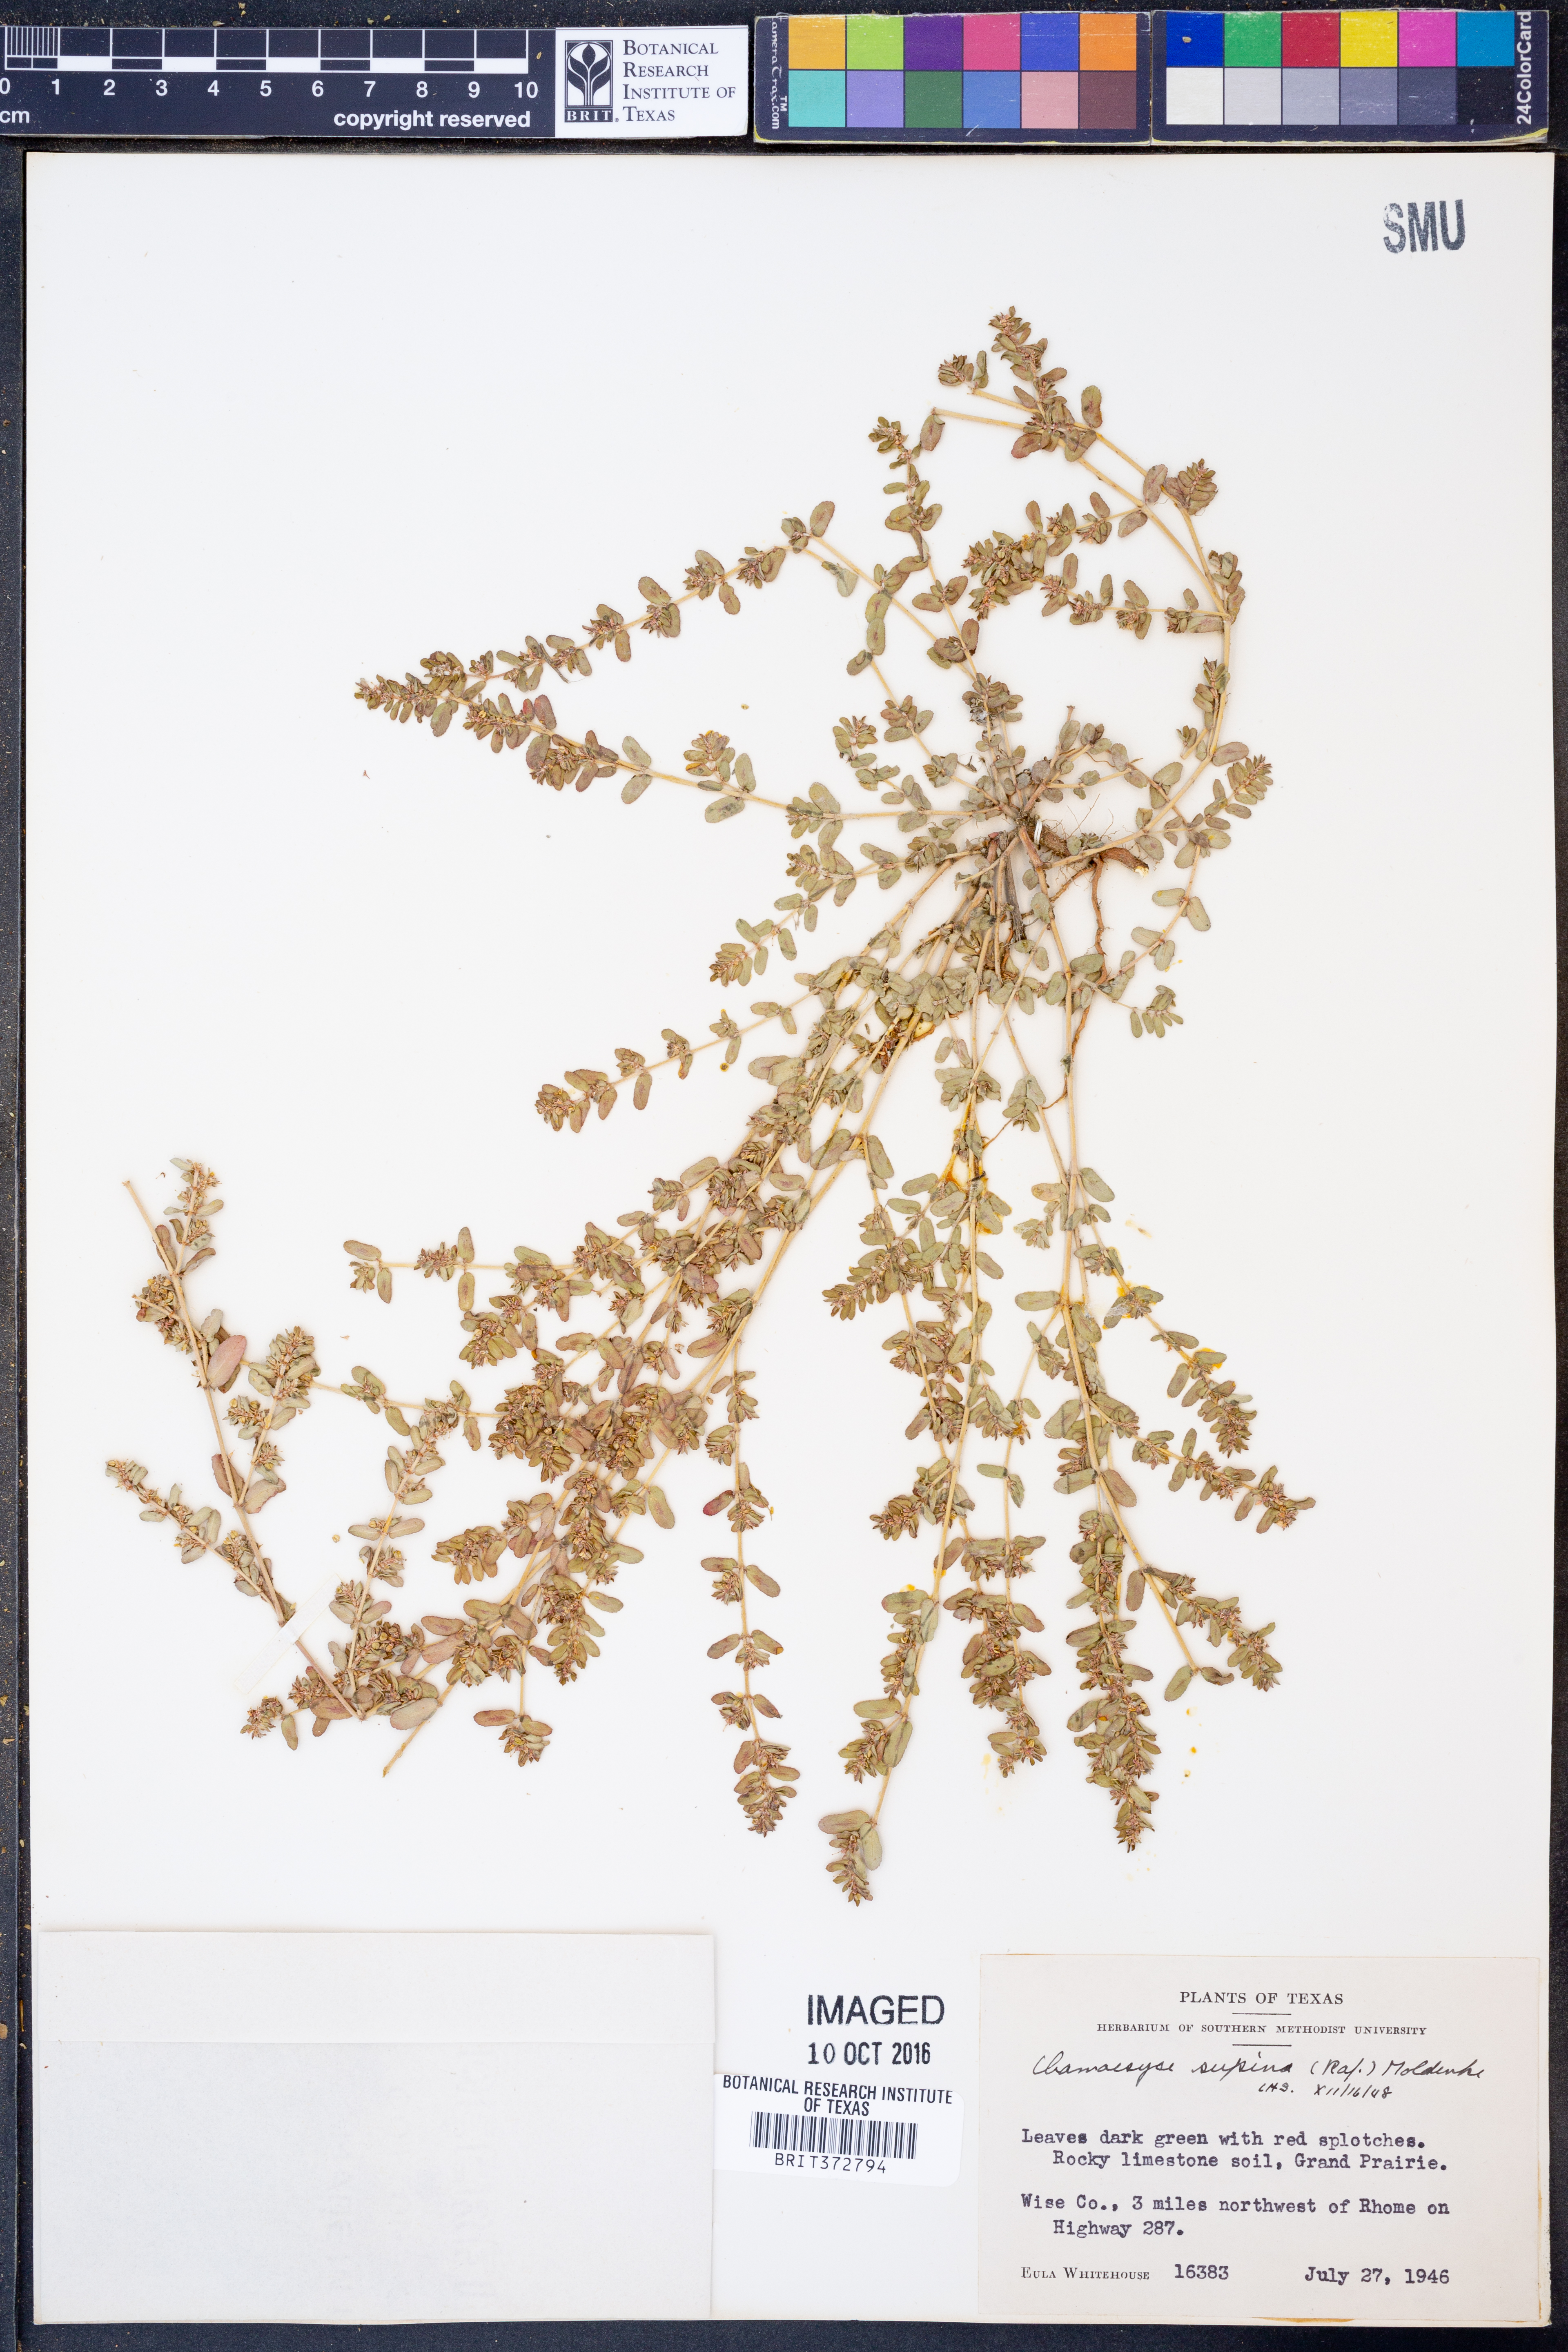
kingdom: Plantae
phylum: Tracheophyta
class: Magnoliopsida
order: Malpighiales
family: Euphorbiaceae
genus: Euphorbia
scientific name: Euphorbia maculata
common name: Spotted spurge
